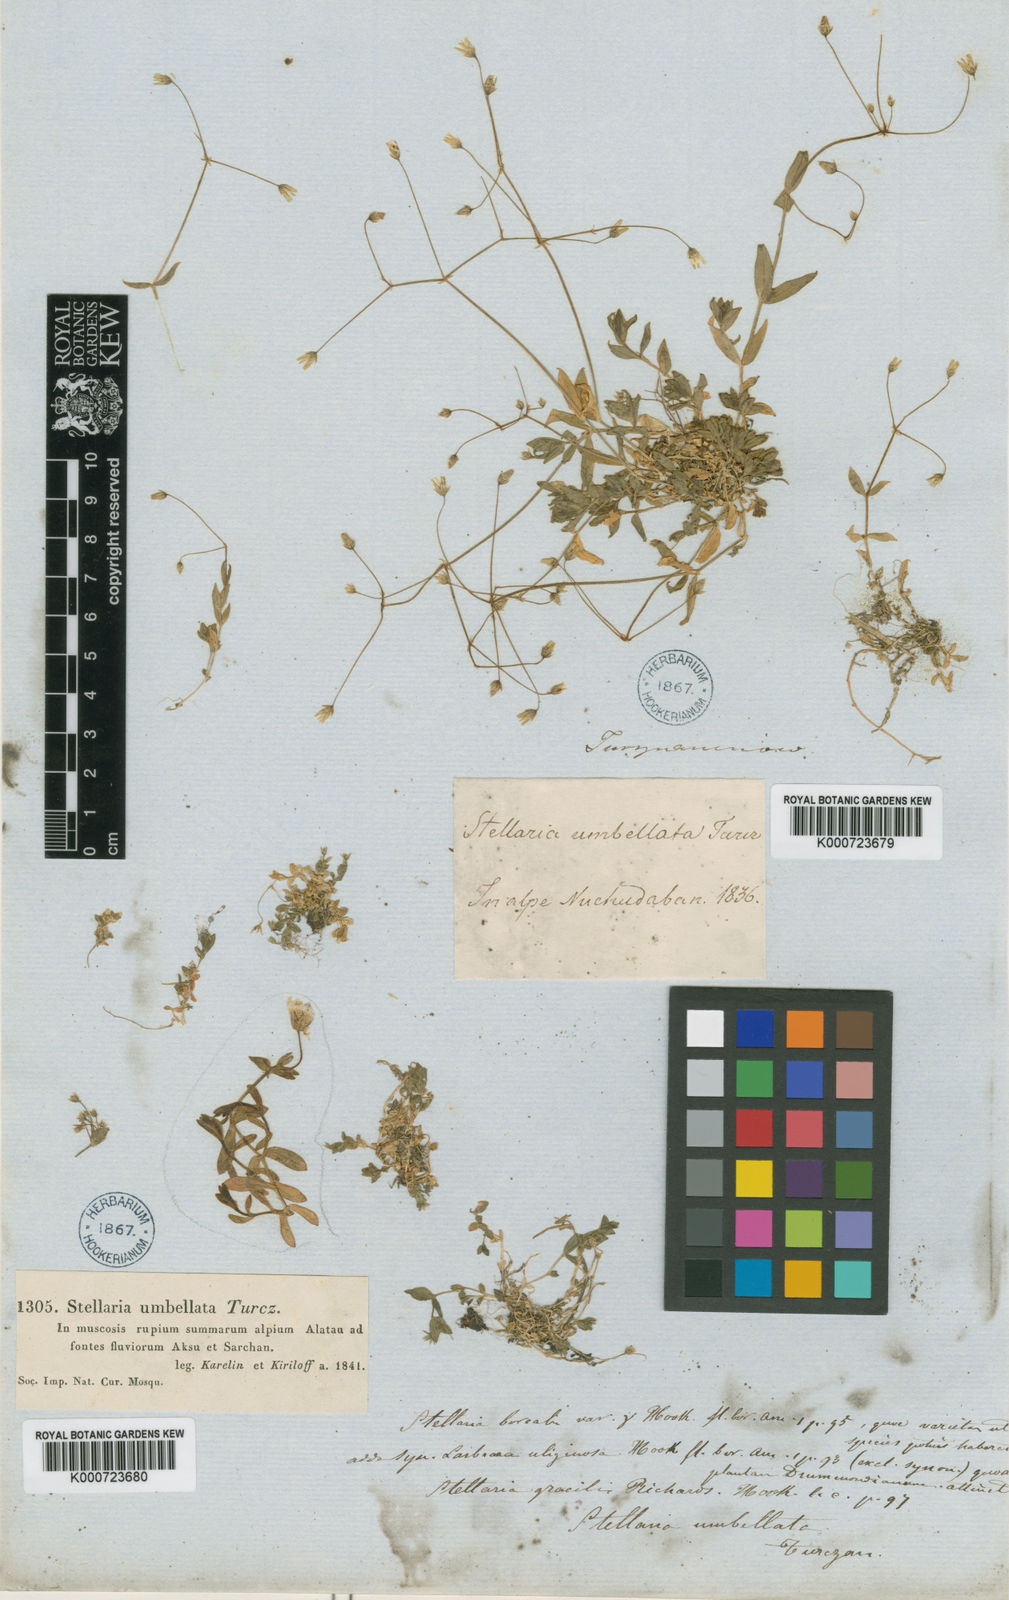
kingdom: Plantae
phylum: Tracheophyta
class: Magnoliopsida
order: Caryophyllales
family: Caryophyllaceae
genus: Stellaria
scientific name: Stellaria
